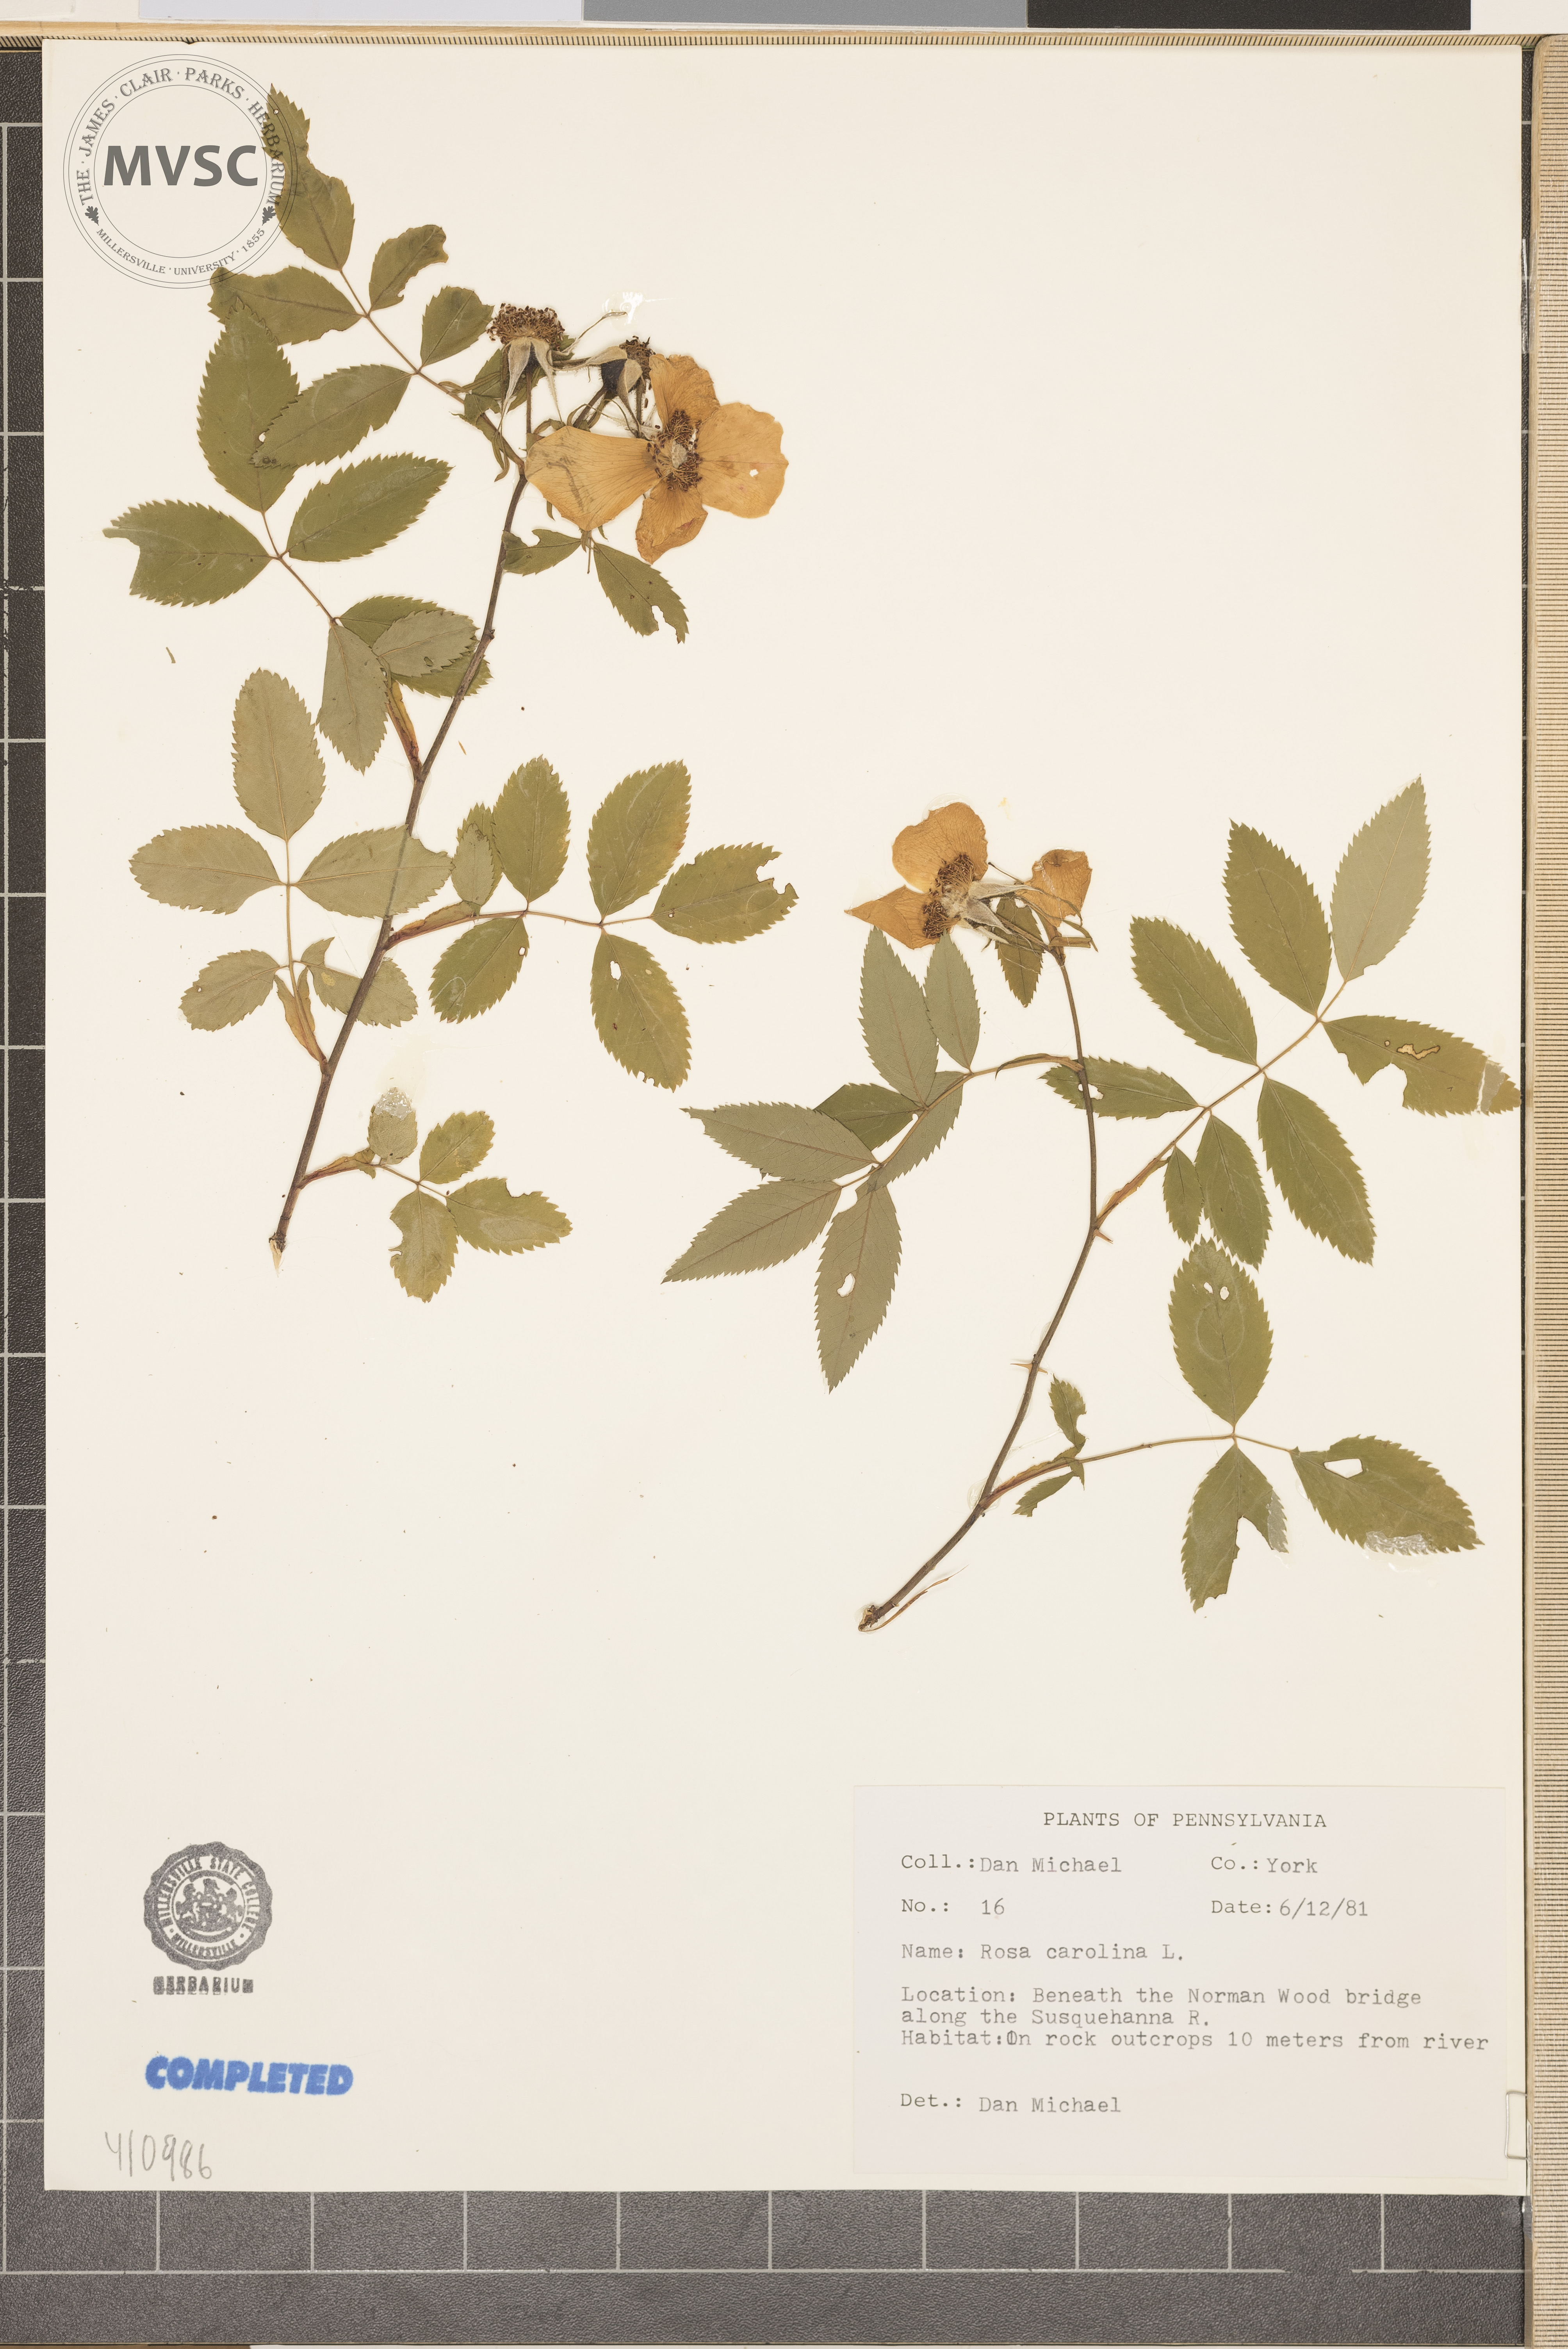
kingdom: Plantae
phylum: Tracheophyta
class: Magnoliopsida
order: Rosales
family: Rosaceae
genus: Rosa
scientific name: Rosa carolina
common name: Pasture rose
